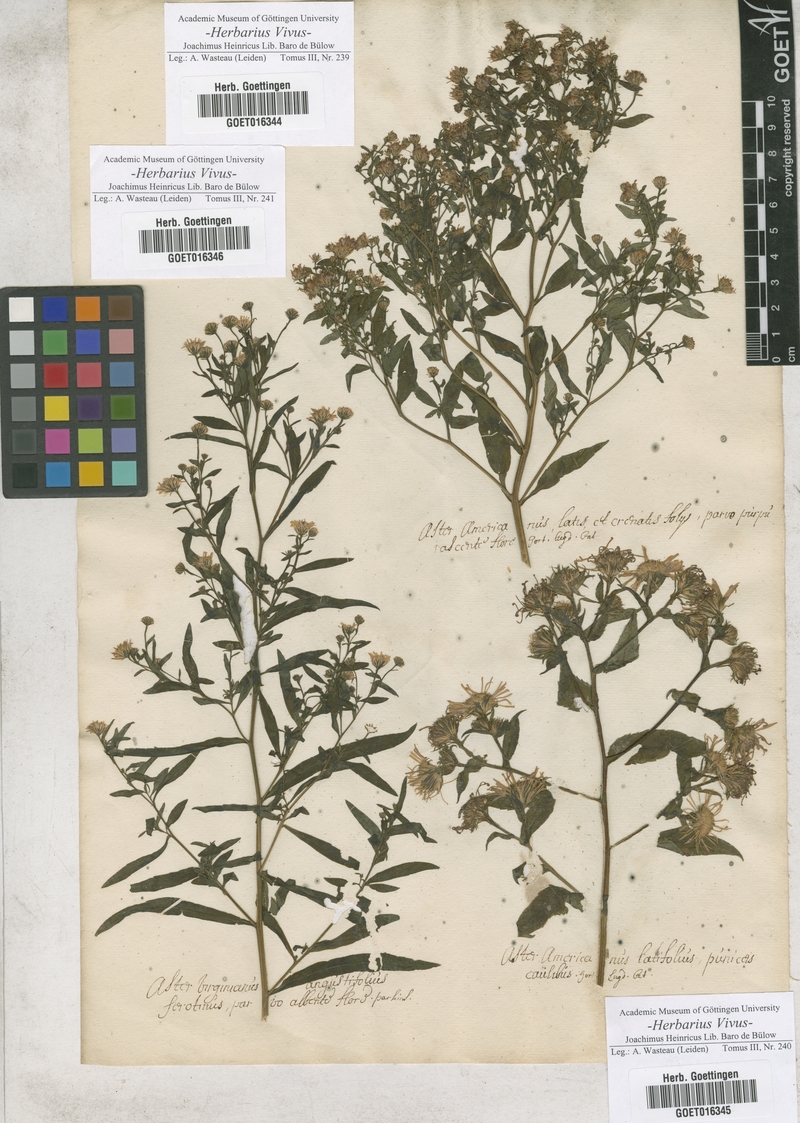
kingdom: Plantae
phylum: Tracheophyta
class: Magnoliopsida
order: Asterales
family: Asteraceae
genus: Aster
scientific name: Aster
